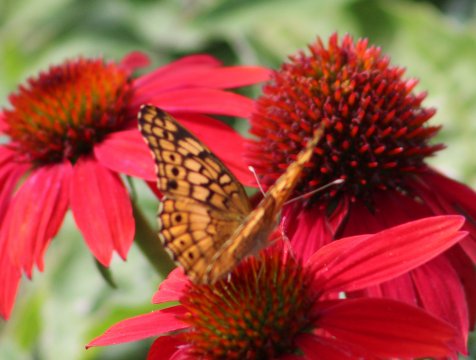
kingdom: Animalia
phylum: Arthropoda
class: Insecta
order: Lepidoptera
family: Nymphalidae
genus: Euptoieta
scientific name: Euptoieta claudia
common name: Variegated Fritillary
